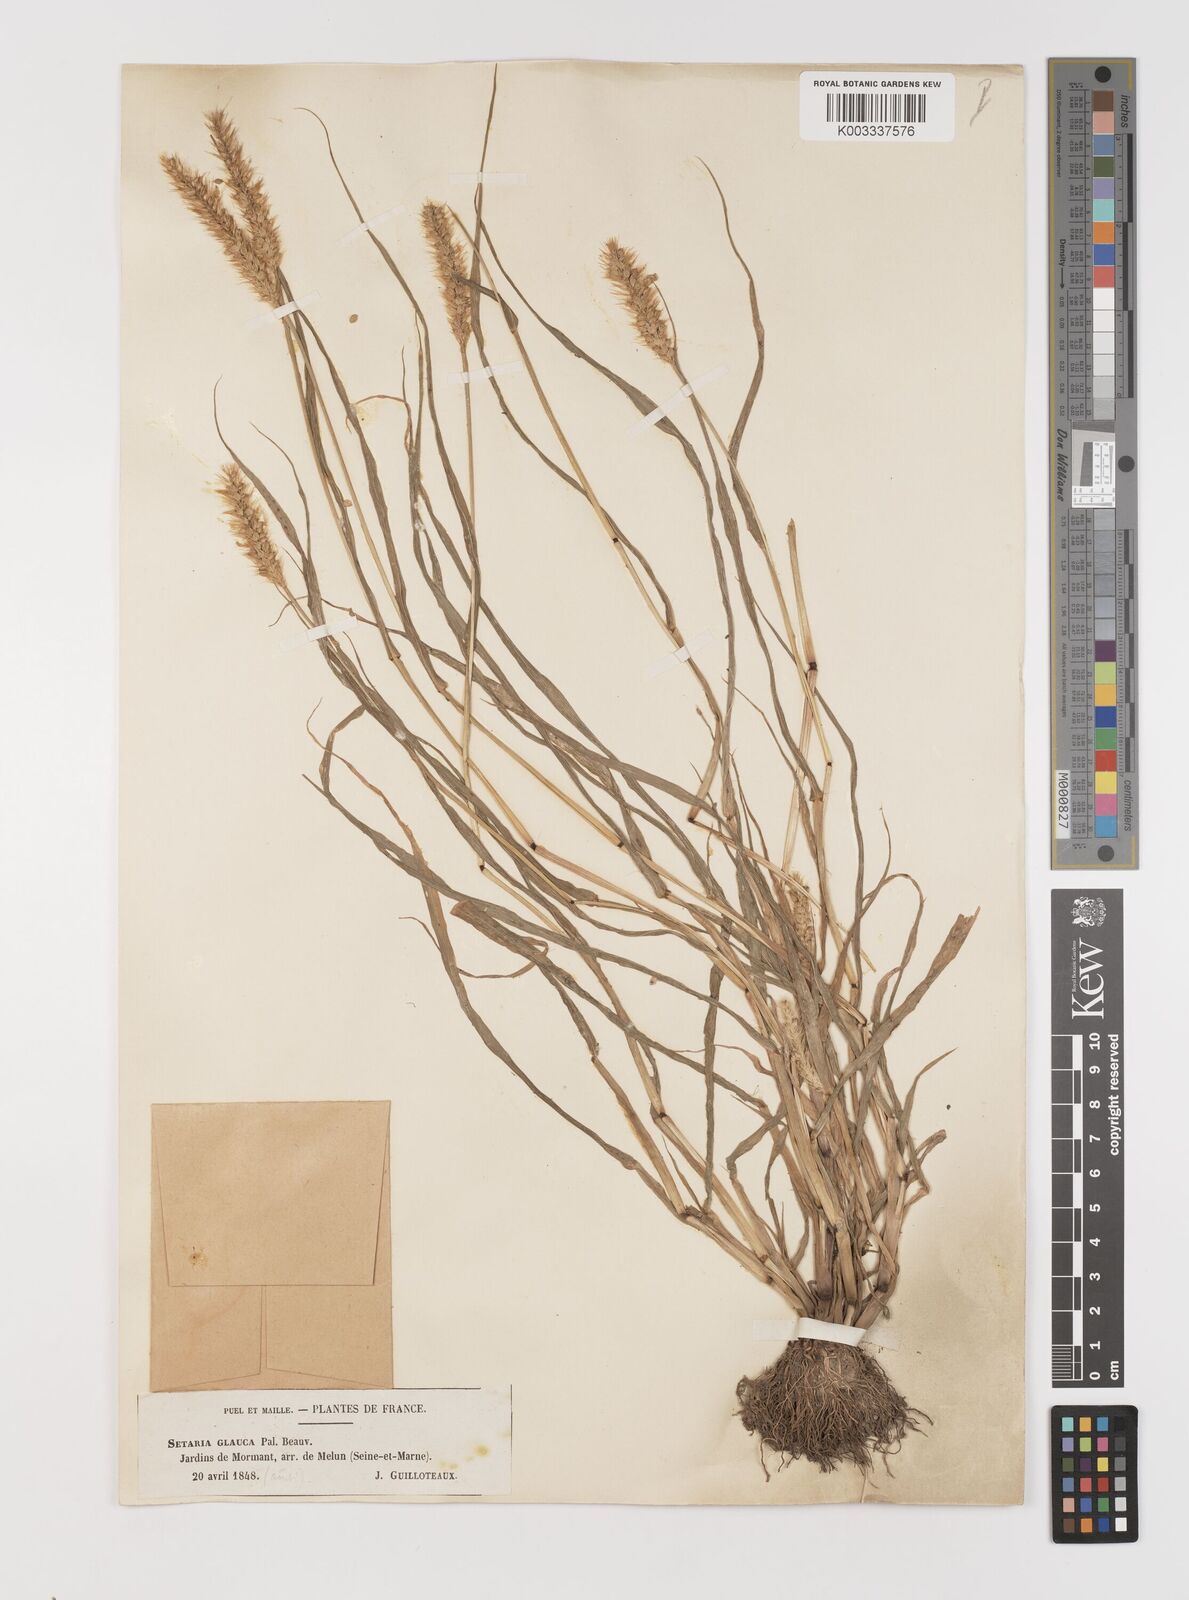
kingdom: Plantae
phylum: Tracheophyta
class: Liliopsida
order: Poales
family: Poaceae
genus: Setaria
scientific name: Setaria pumila
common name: Yellow bristle-grass
